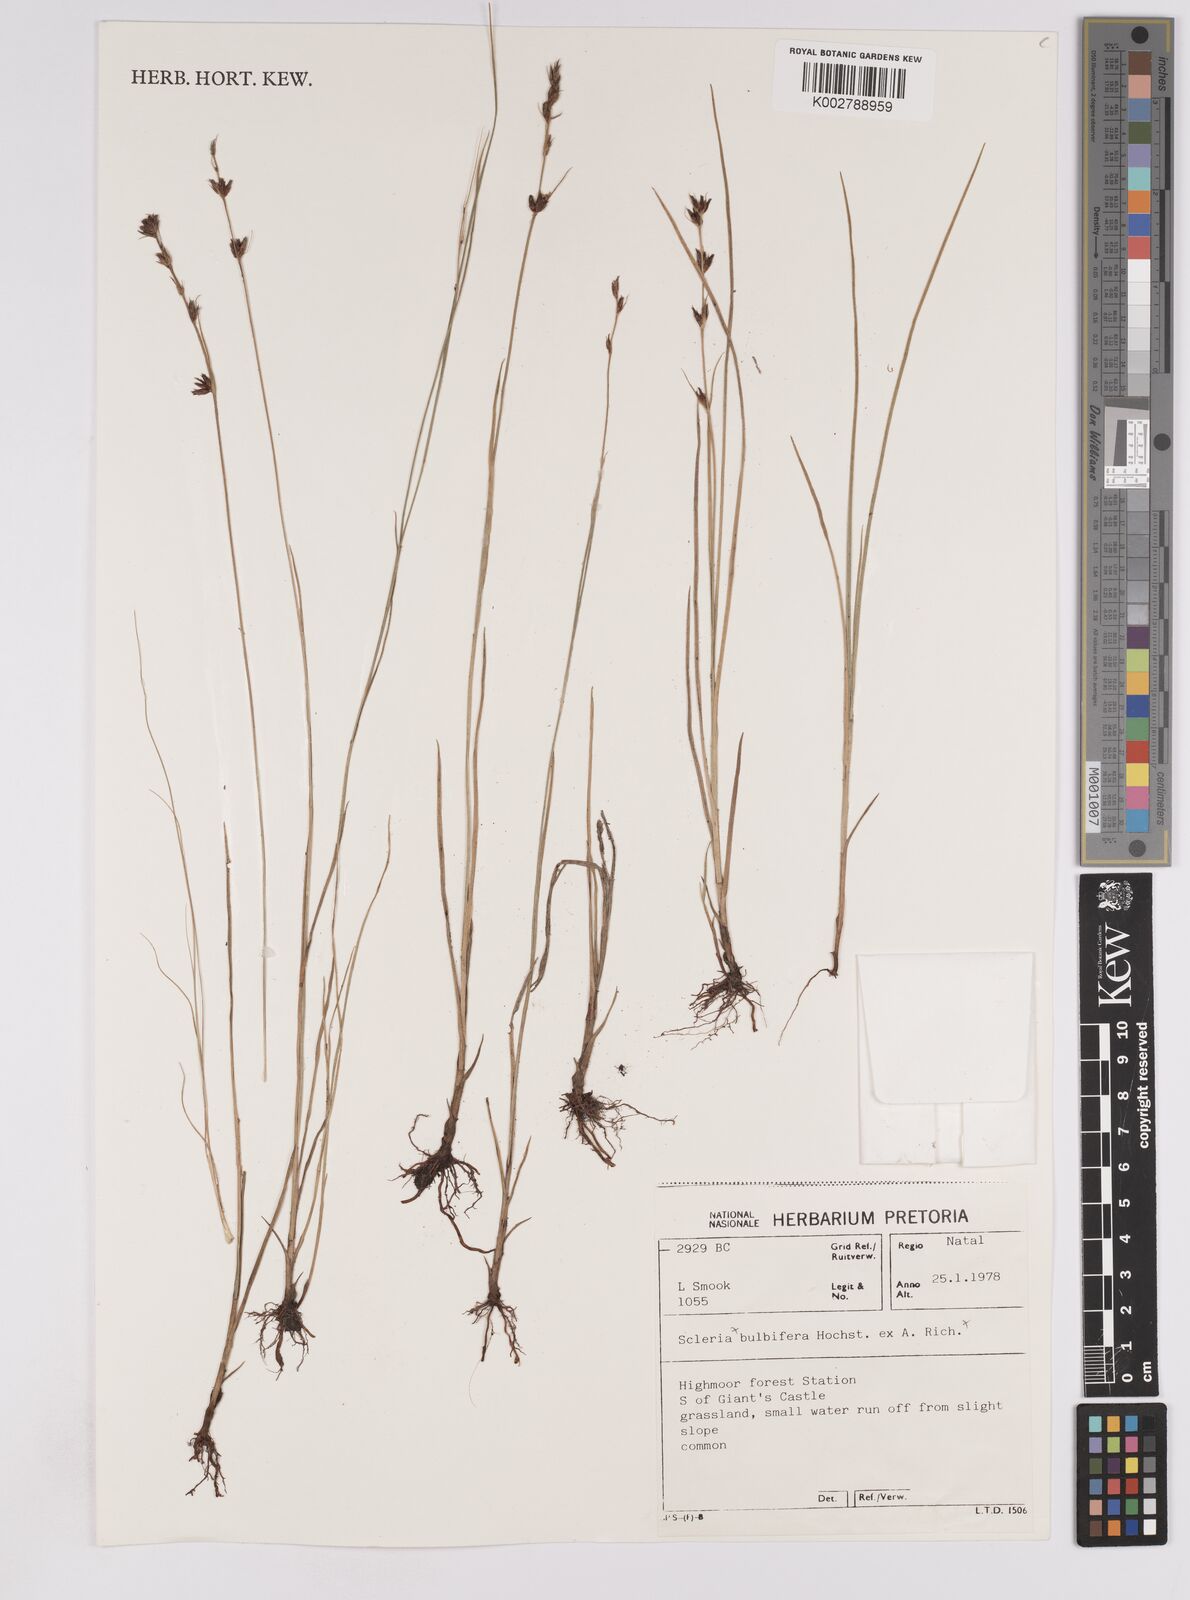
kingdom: Plantae
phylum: Tracheophyta
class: Liliopsida
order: Poales
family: Cyperaceae
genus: Scleria
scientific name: Scleria
